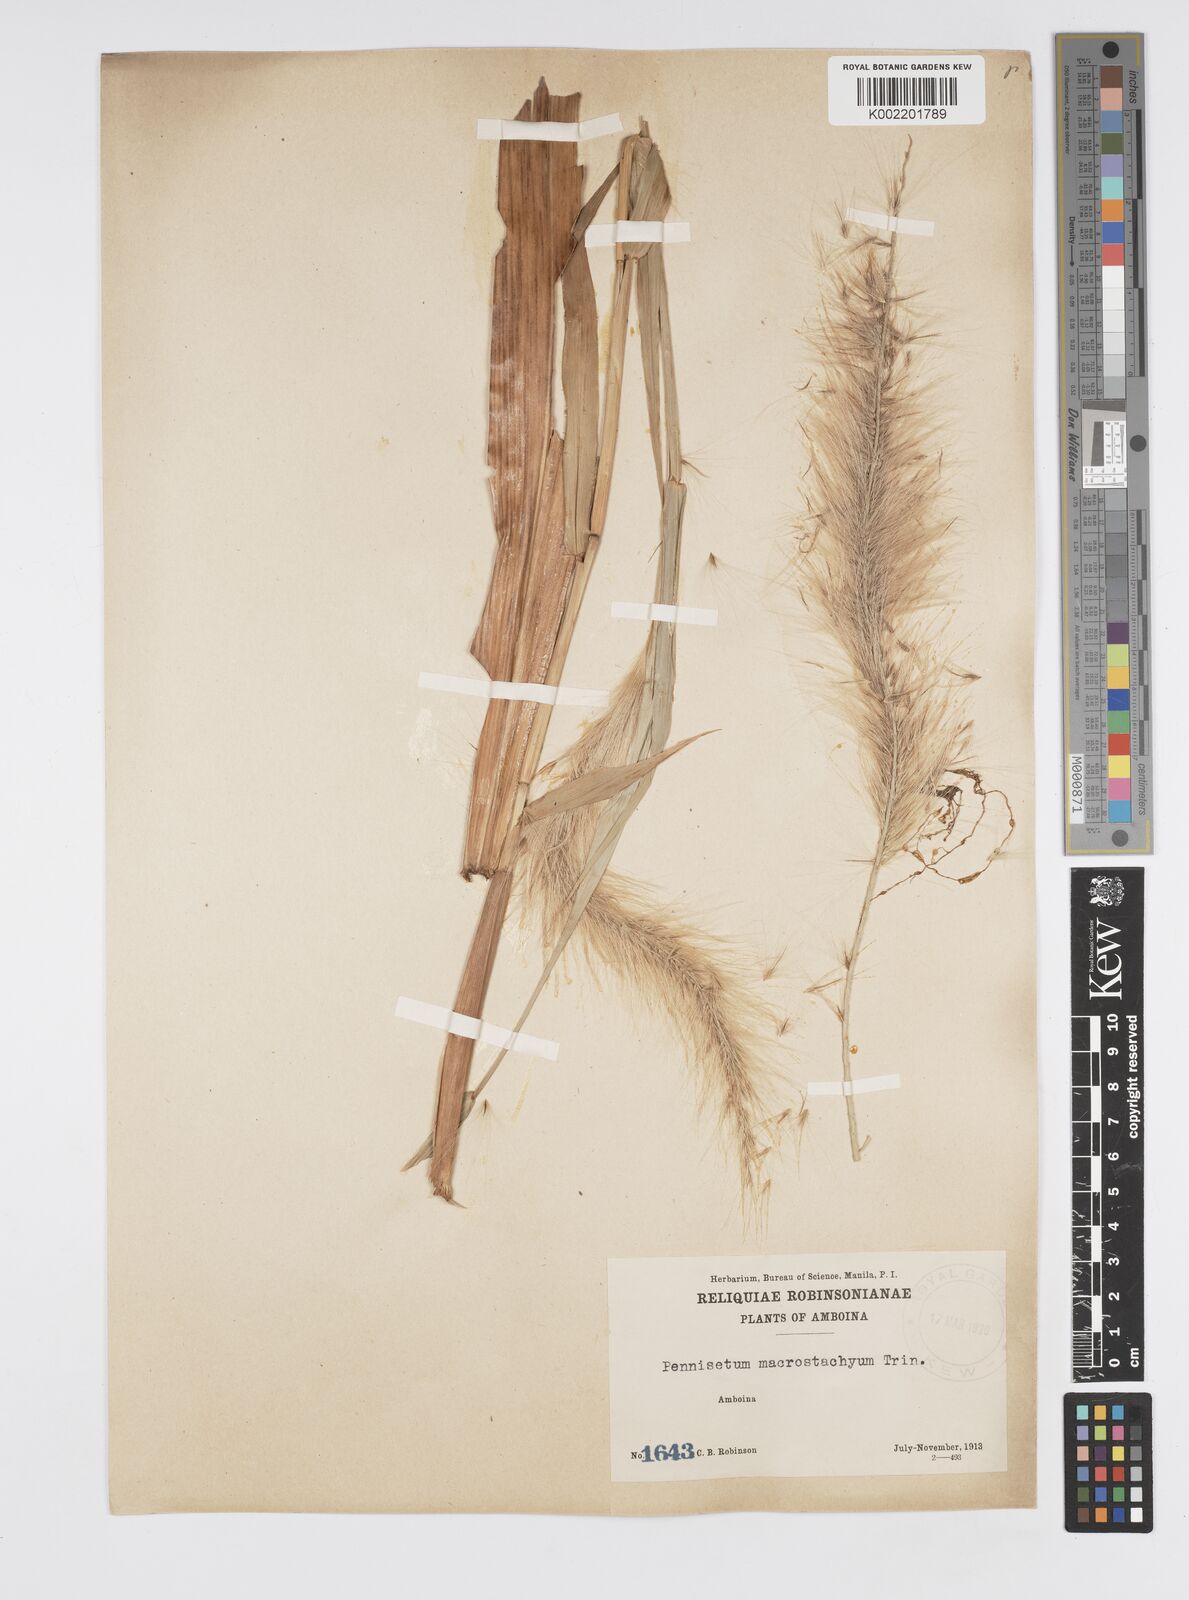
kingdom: Plantae
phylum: Tracheophyta
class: Liliopsida
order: Poales
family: Poaceae
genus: Cenchrus
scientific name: Cenchrus purpureus
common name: Elephant grass
